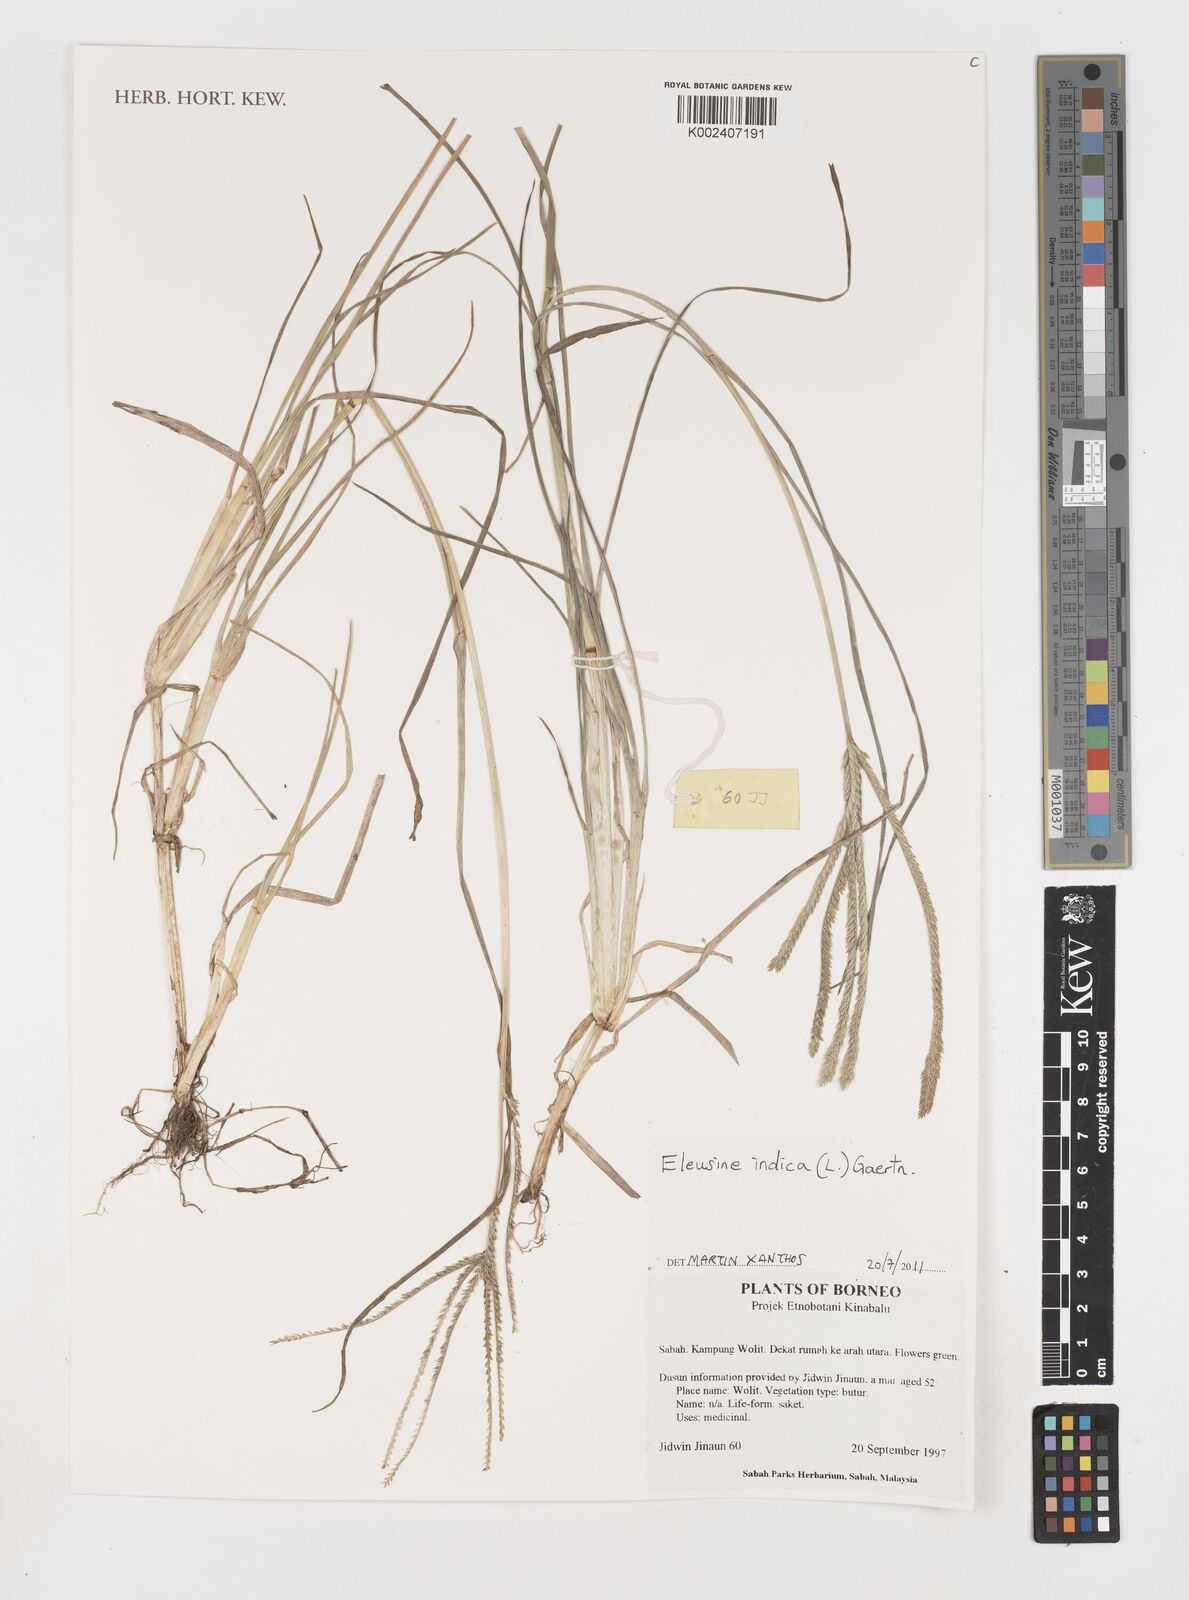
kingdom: Plantae
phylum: Tracheophyta
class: Liliopsida
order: Poales
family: Poaceae
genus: Eleusine
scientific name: Eleusine indica
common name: Yard-grass
